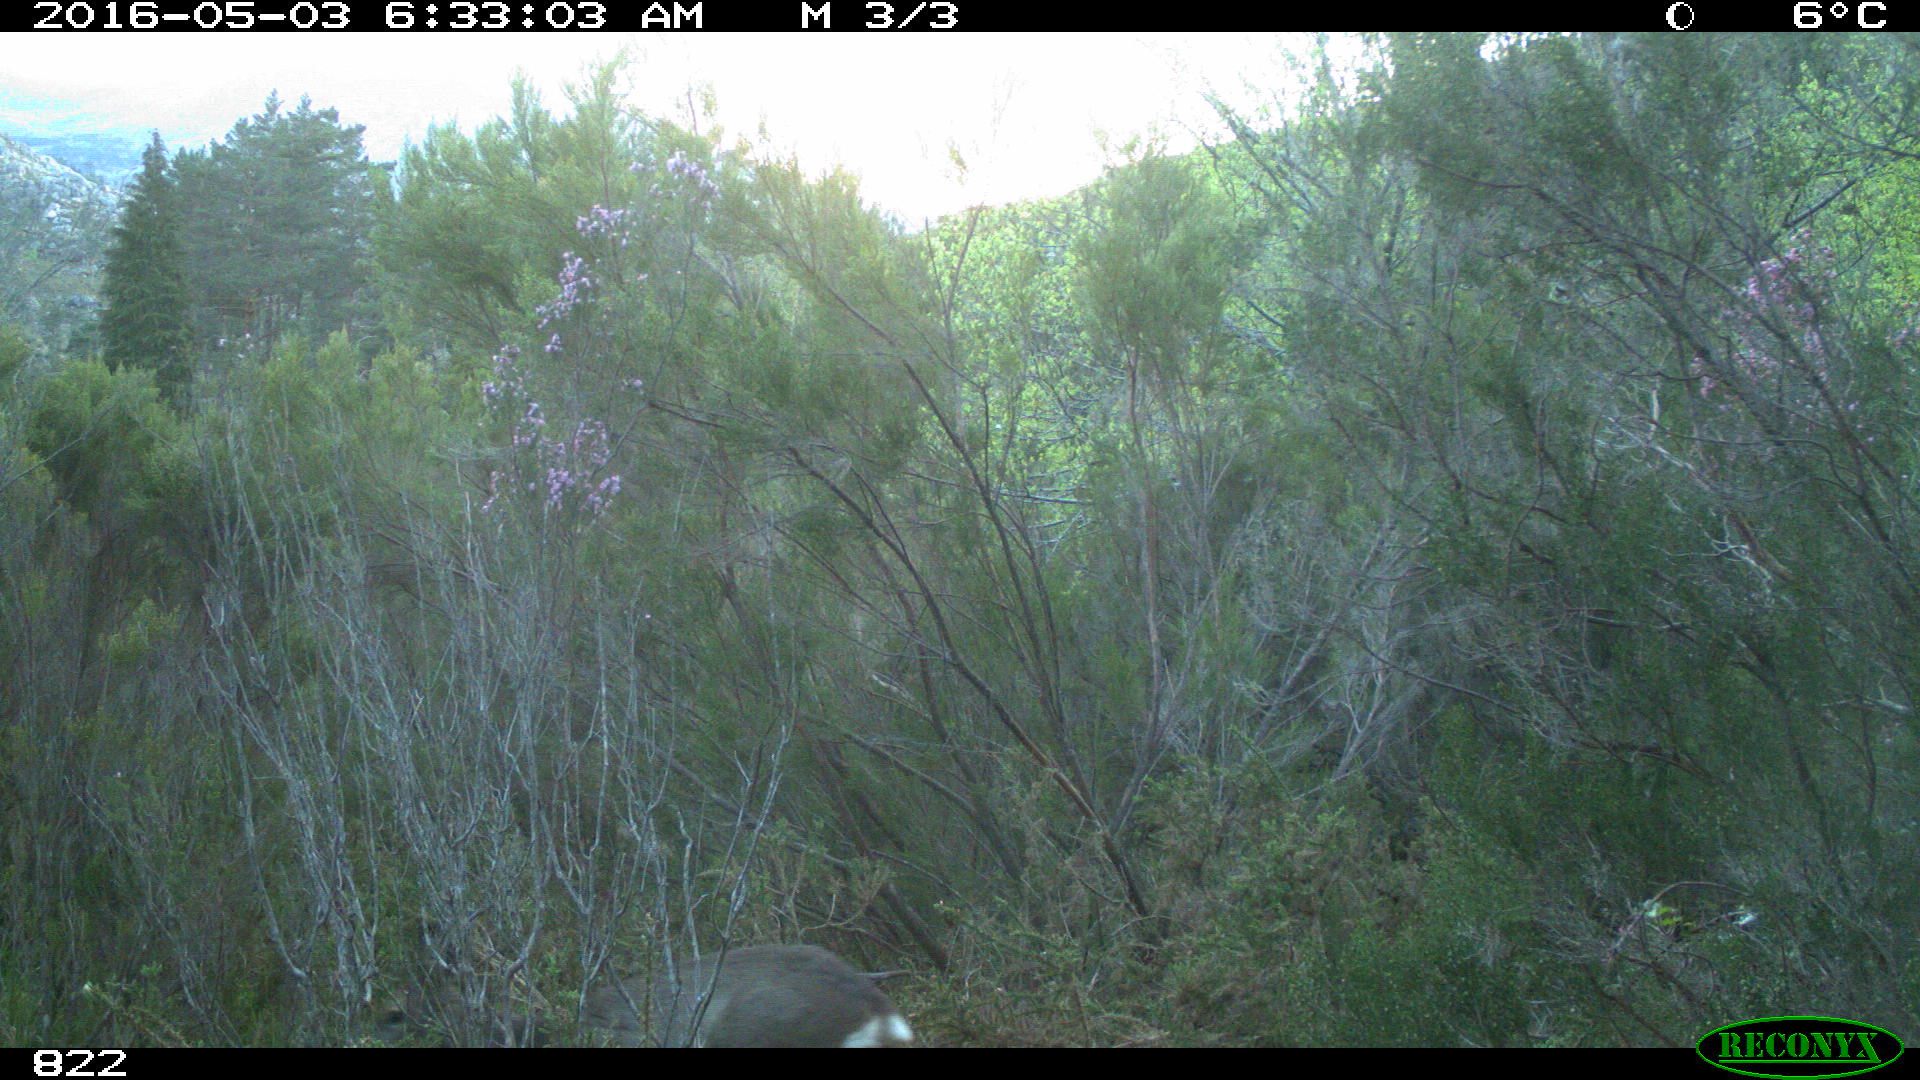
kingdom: Animalia
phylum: Chordata
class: Mammalia
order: Artiodactyla
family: Cervidae
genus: Capreolus
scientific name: Capreolus capreolus
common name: Western roe deer
